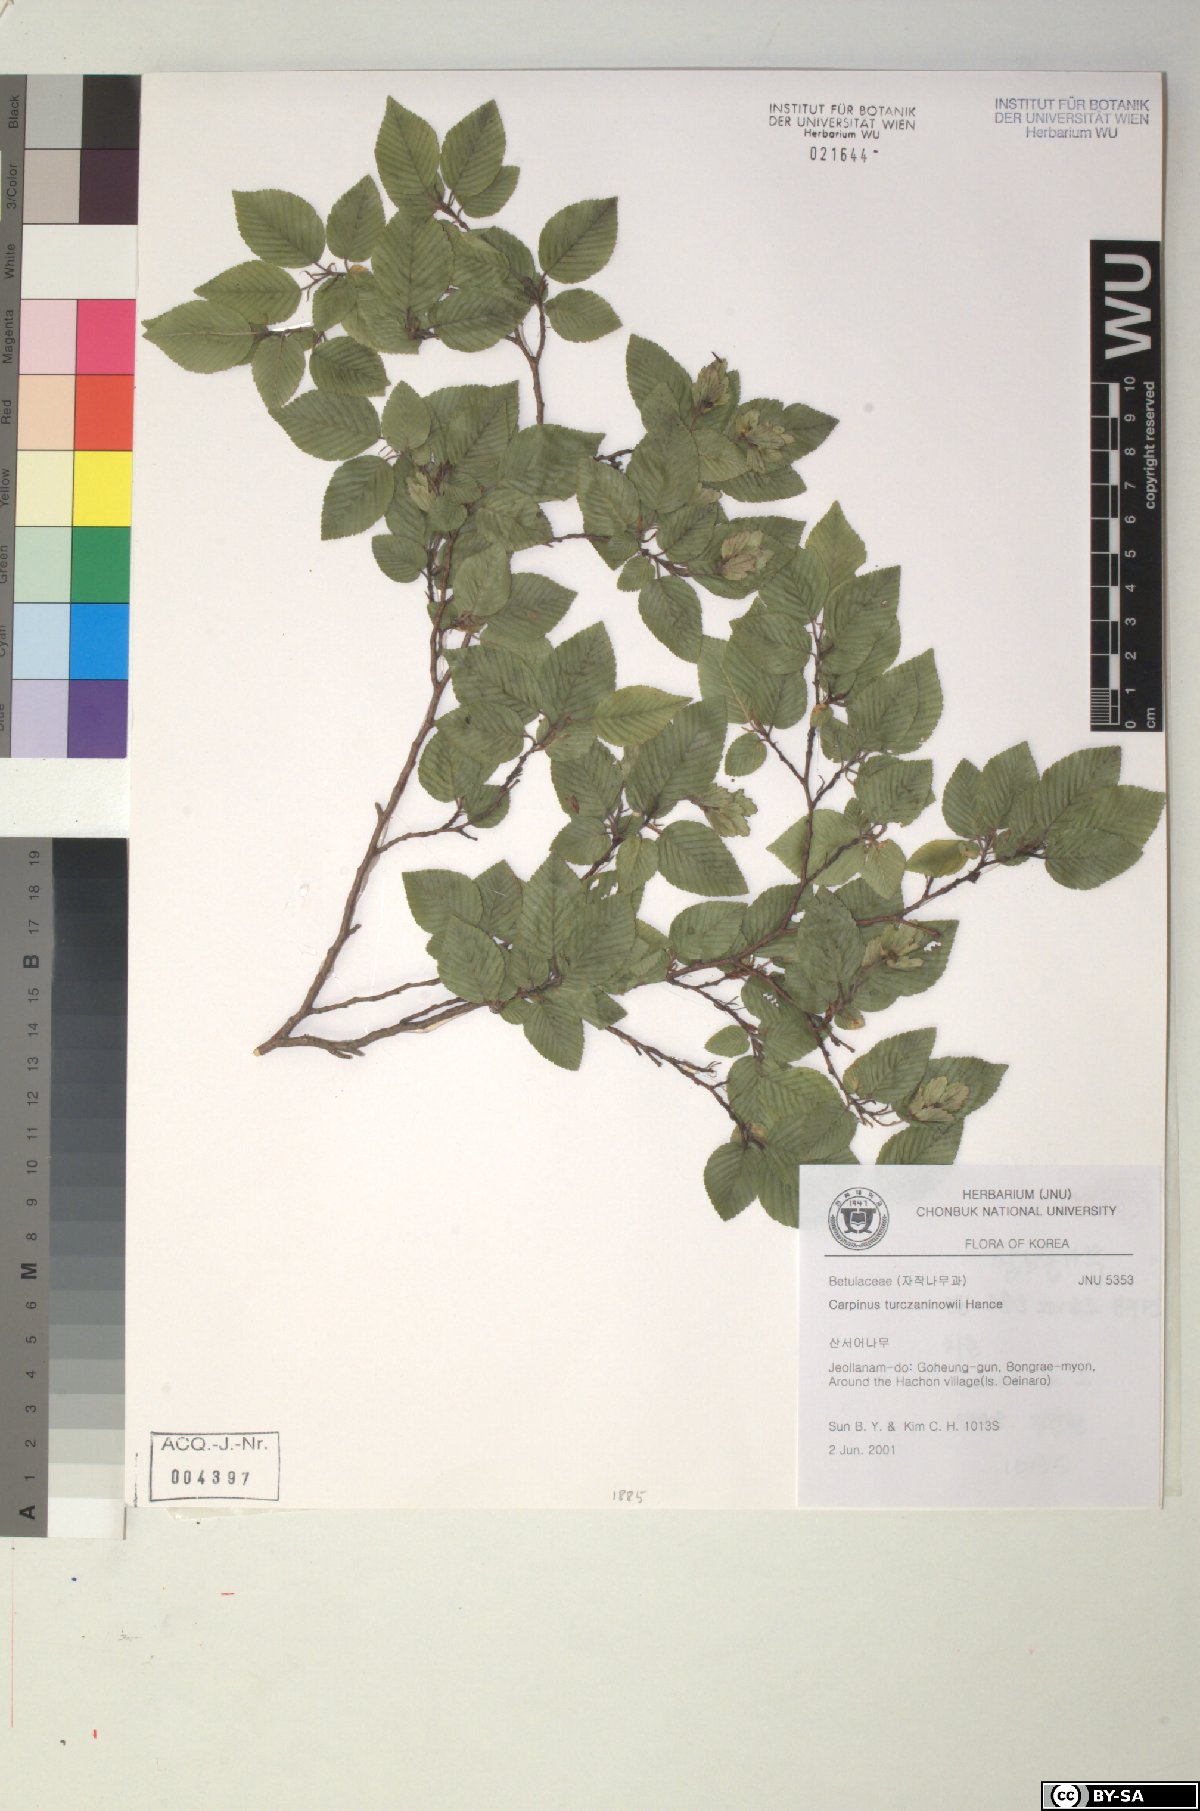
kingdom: Plantae
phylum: Tracheophyta
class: Magnoliopsida
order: Fagales
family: Betulaceae
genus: Carpinus
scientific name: Carpinus turczaninovii
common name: Korean hornbeam
